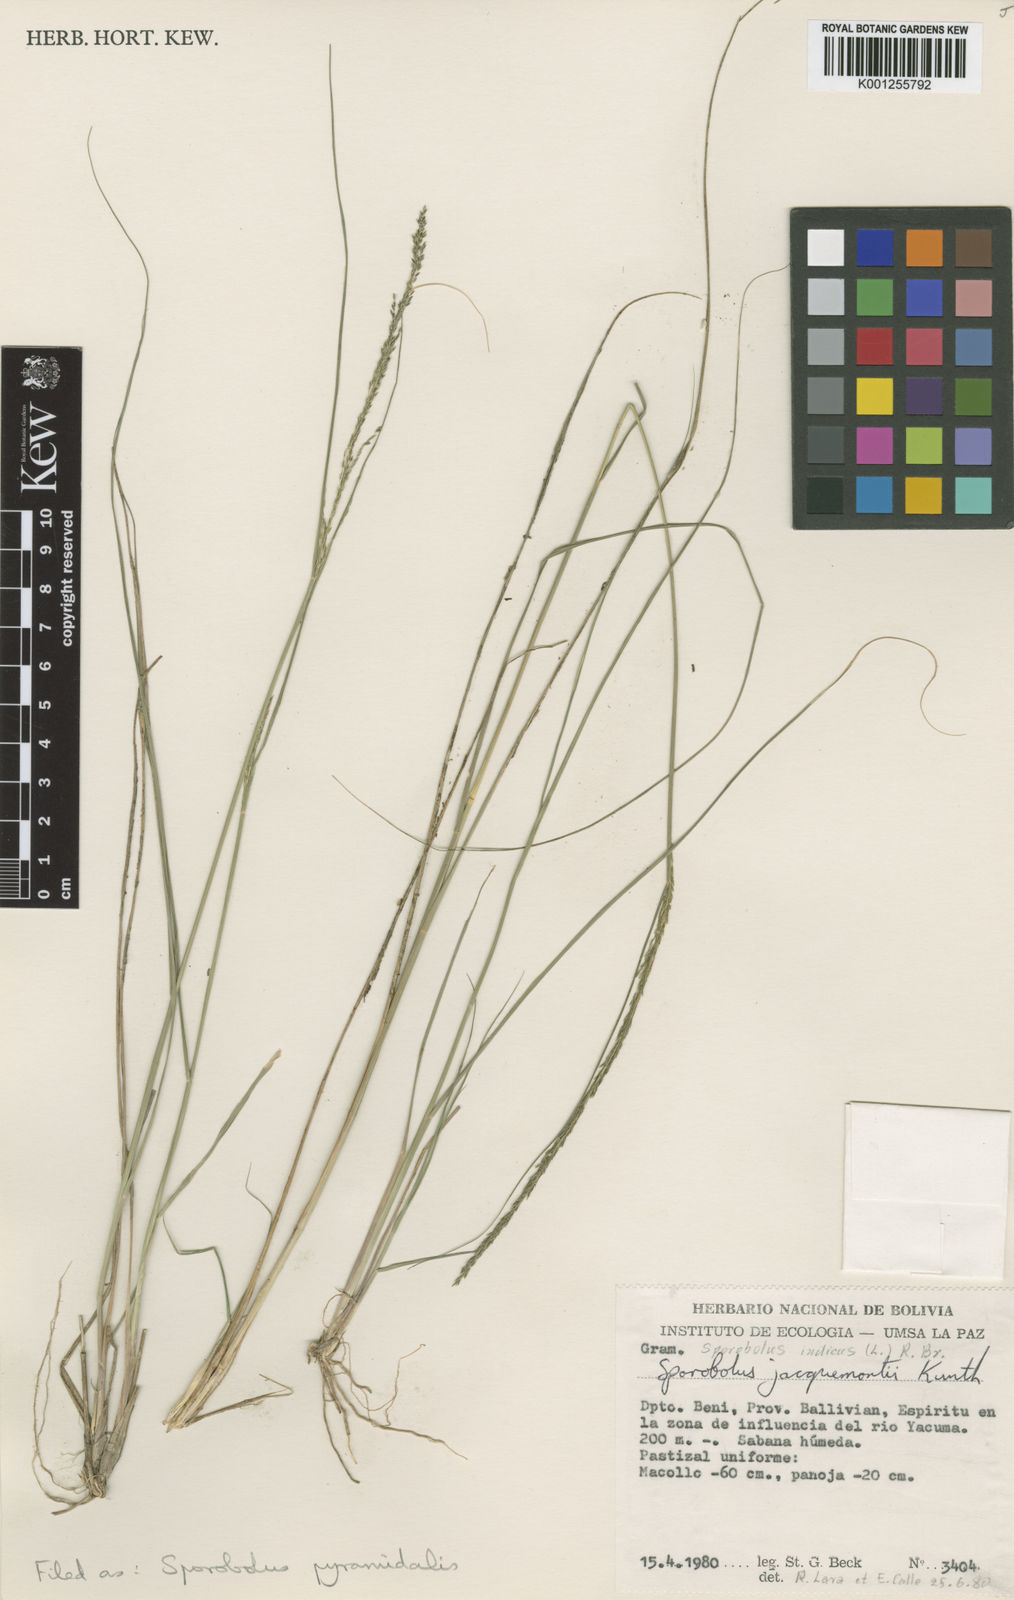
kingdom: Plantae
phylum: Tracheophyta
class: Liliopsida
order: Poales
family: Poaceae
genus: Sporobolus
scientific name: Sporobolus pyramidalis
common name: West indian dropseed
